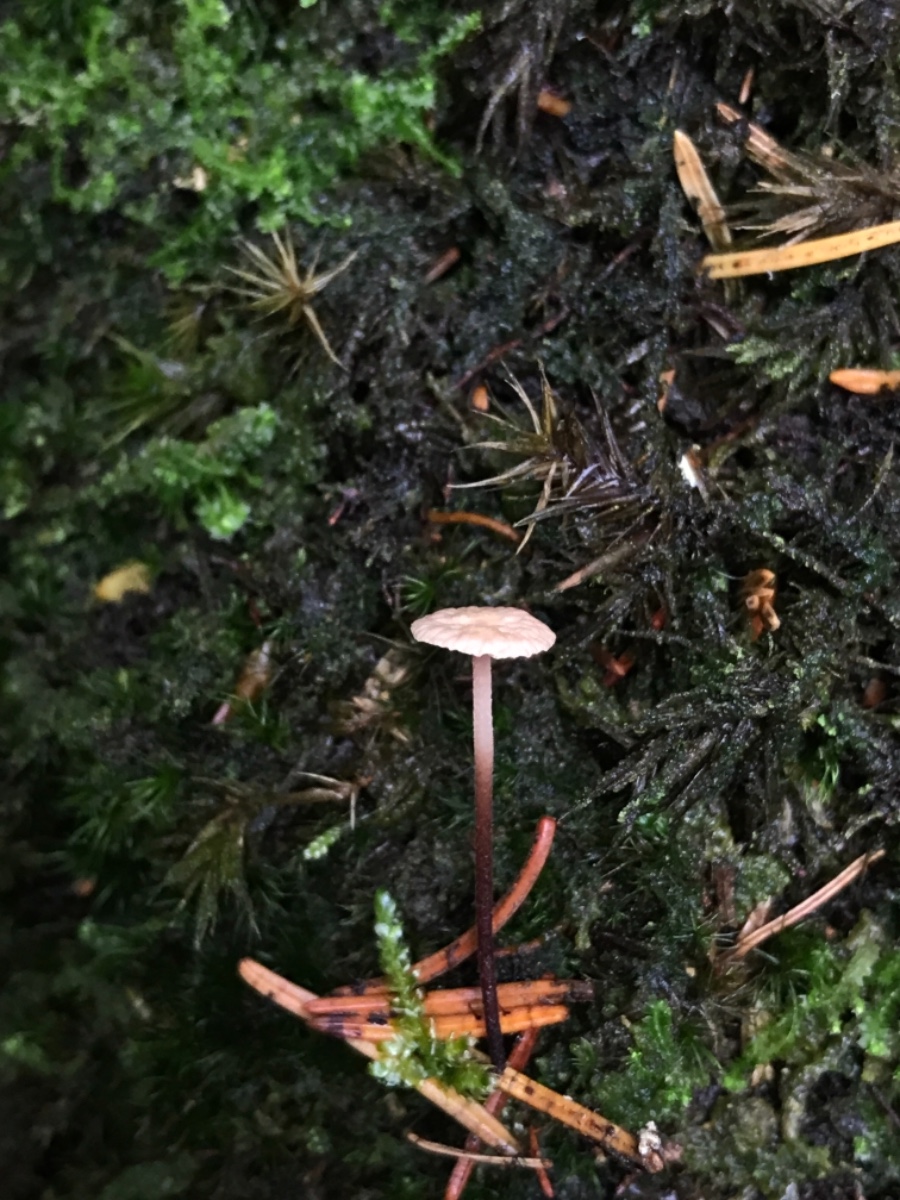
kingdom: Fungi
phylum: Basidiomycota
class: Agaricomycetes
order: Agaricales
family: Omphalotaceae
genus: Paragymnopus
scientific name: Paragymnopus perforans
